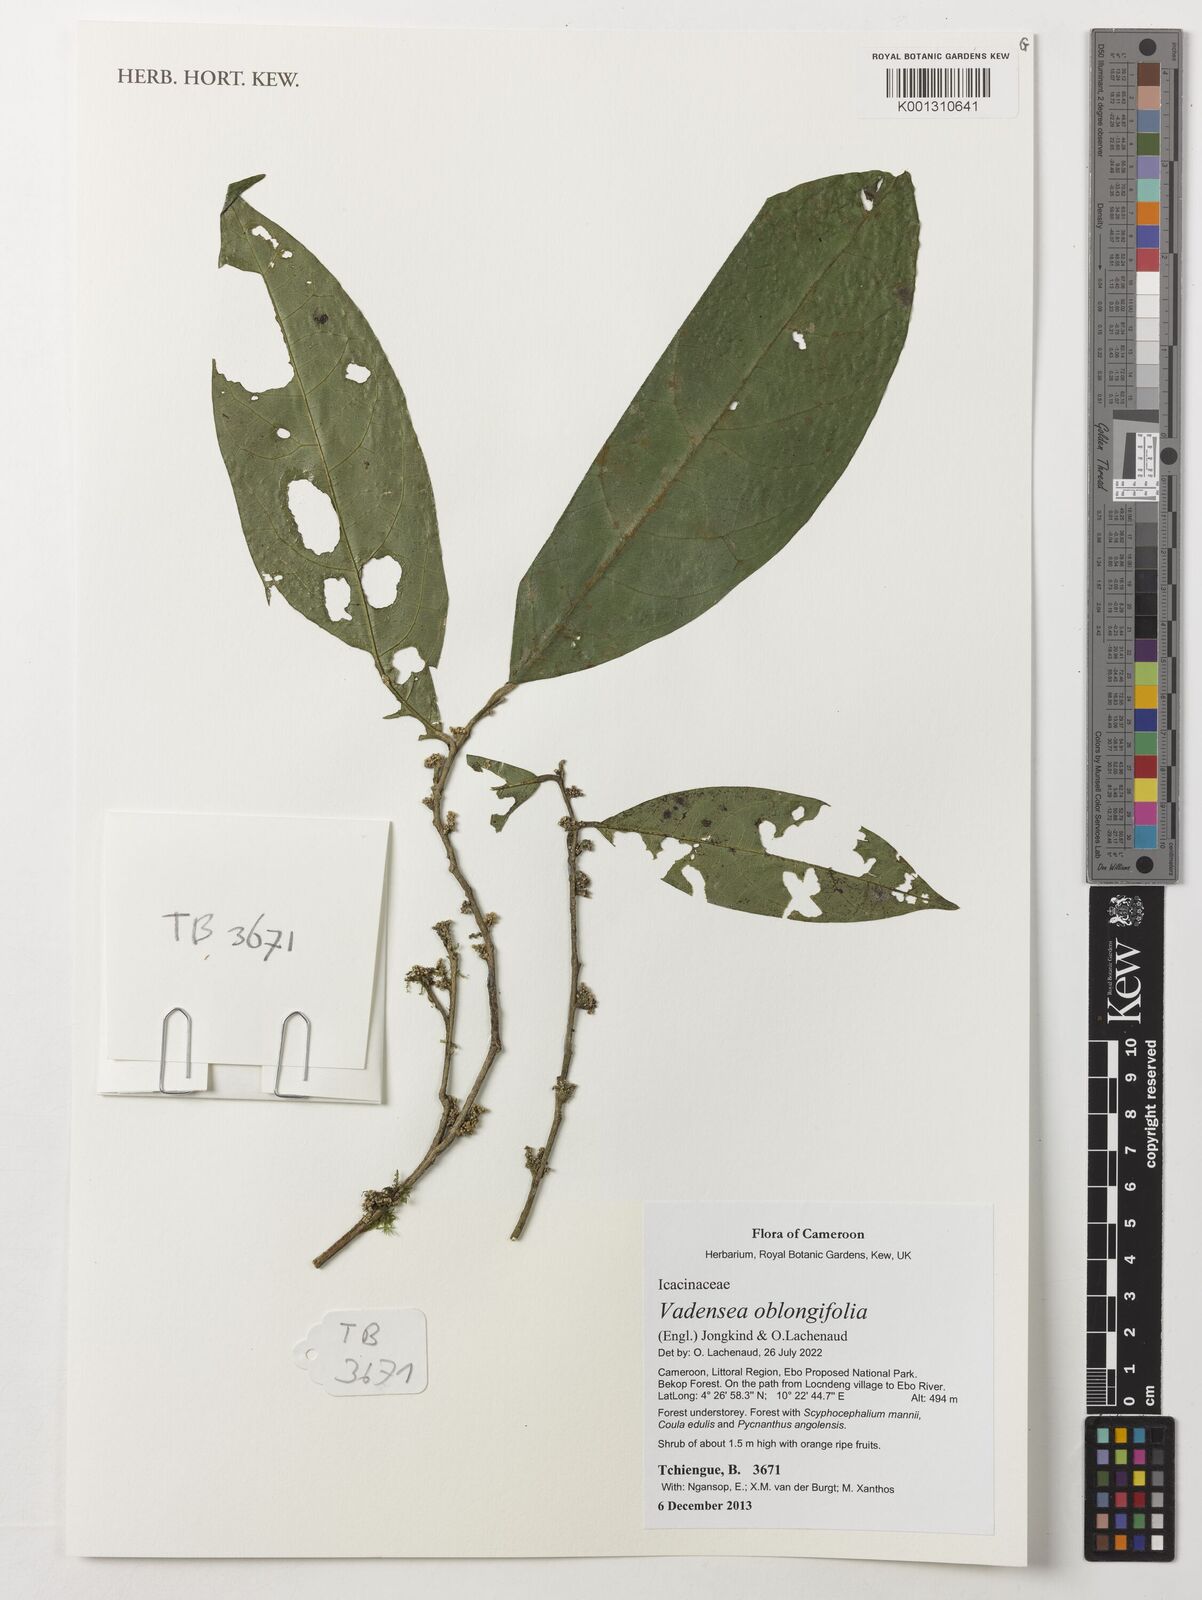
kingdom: Plantae
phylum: Tracheophyta
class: Magnoliopsida
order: Icacinales
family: Icacinaceae
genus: Vadensea
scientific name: Vadensea oblongifolia
